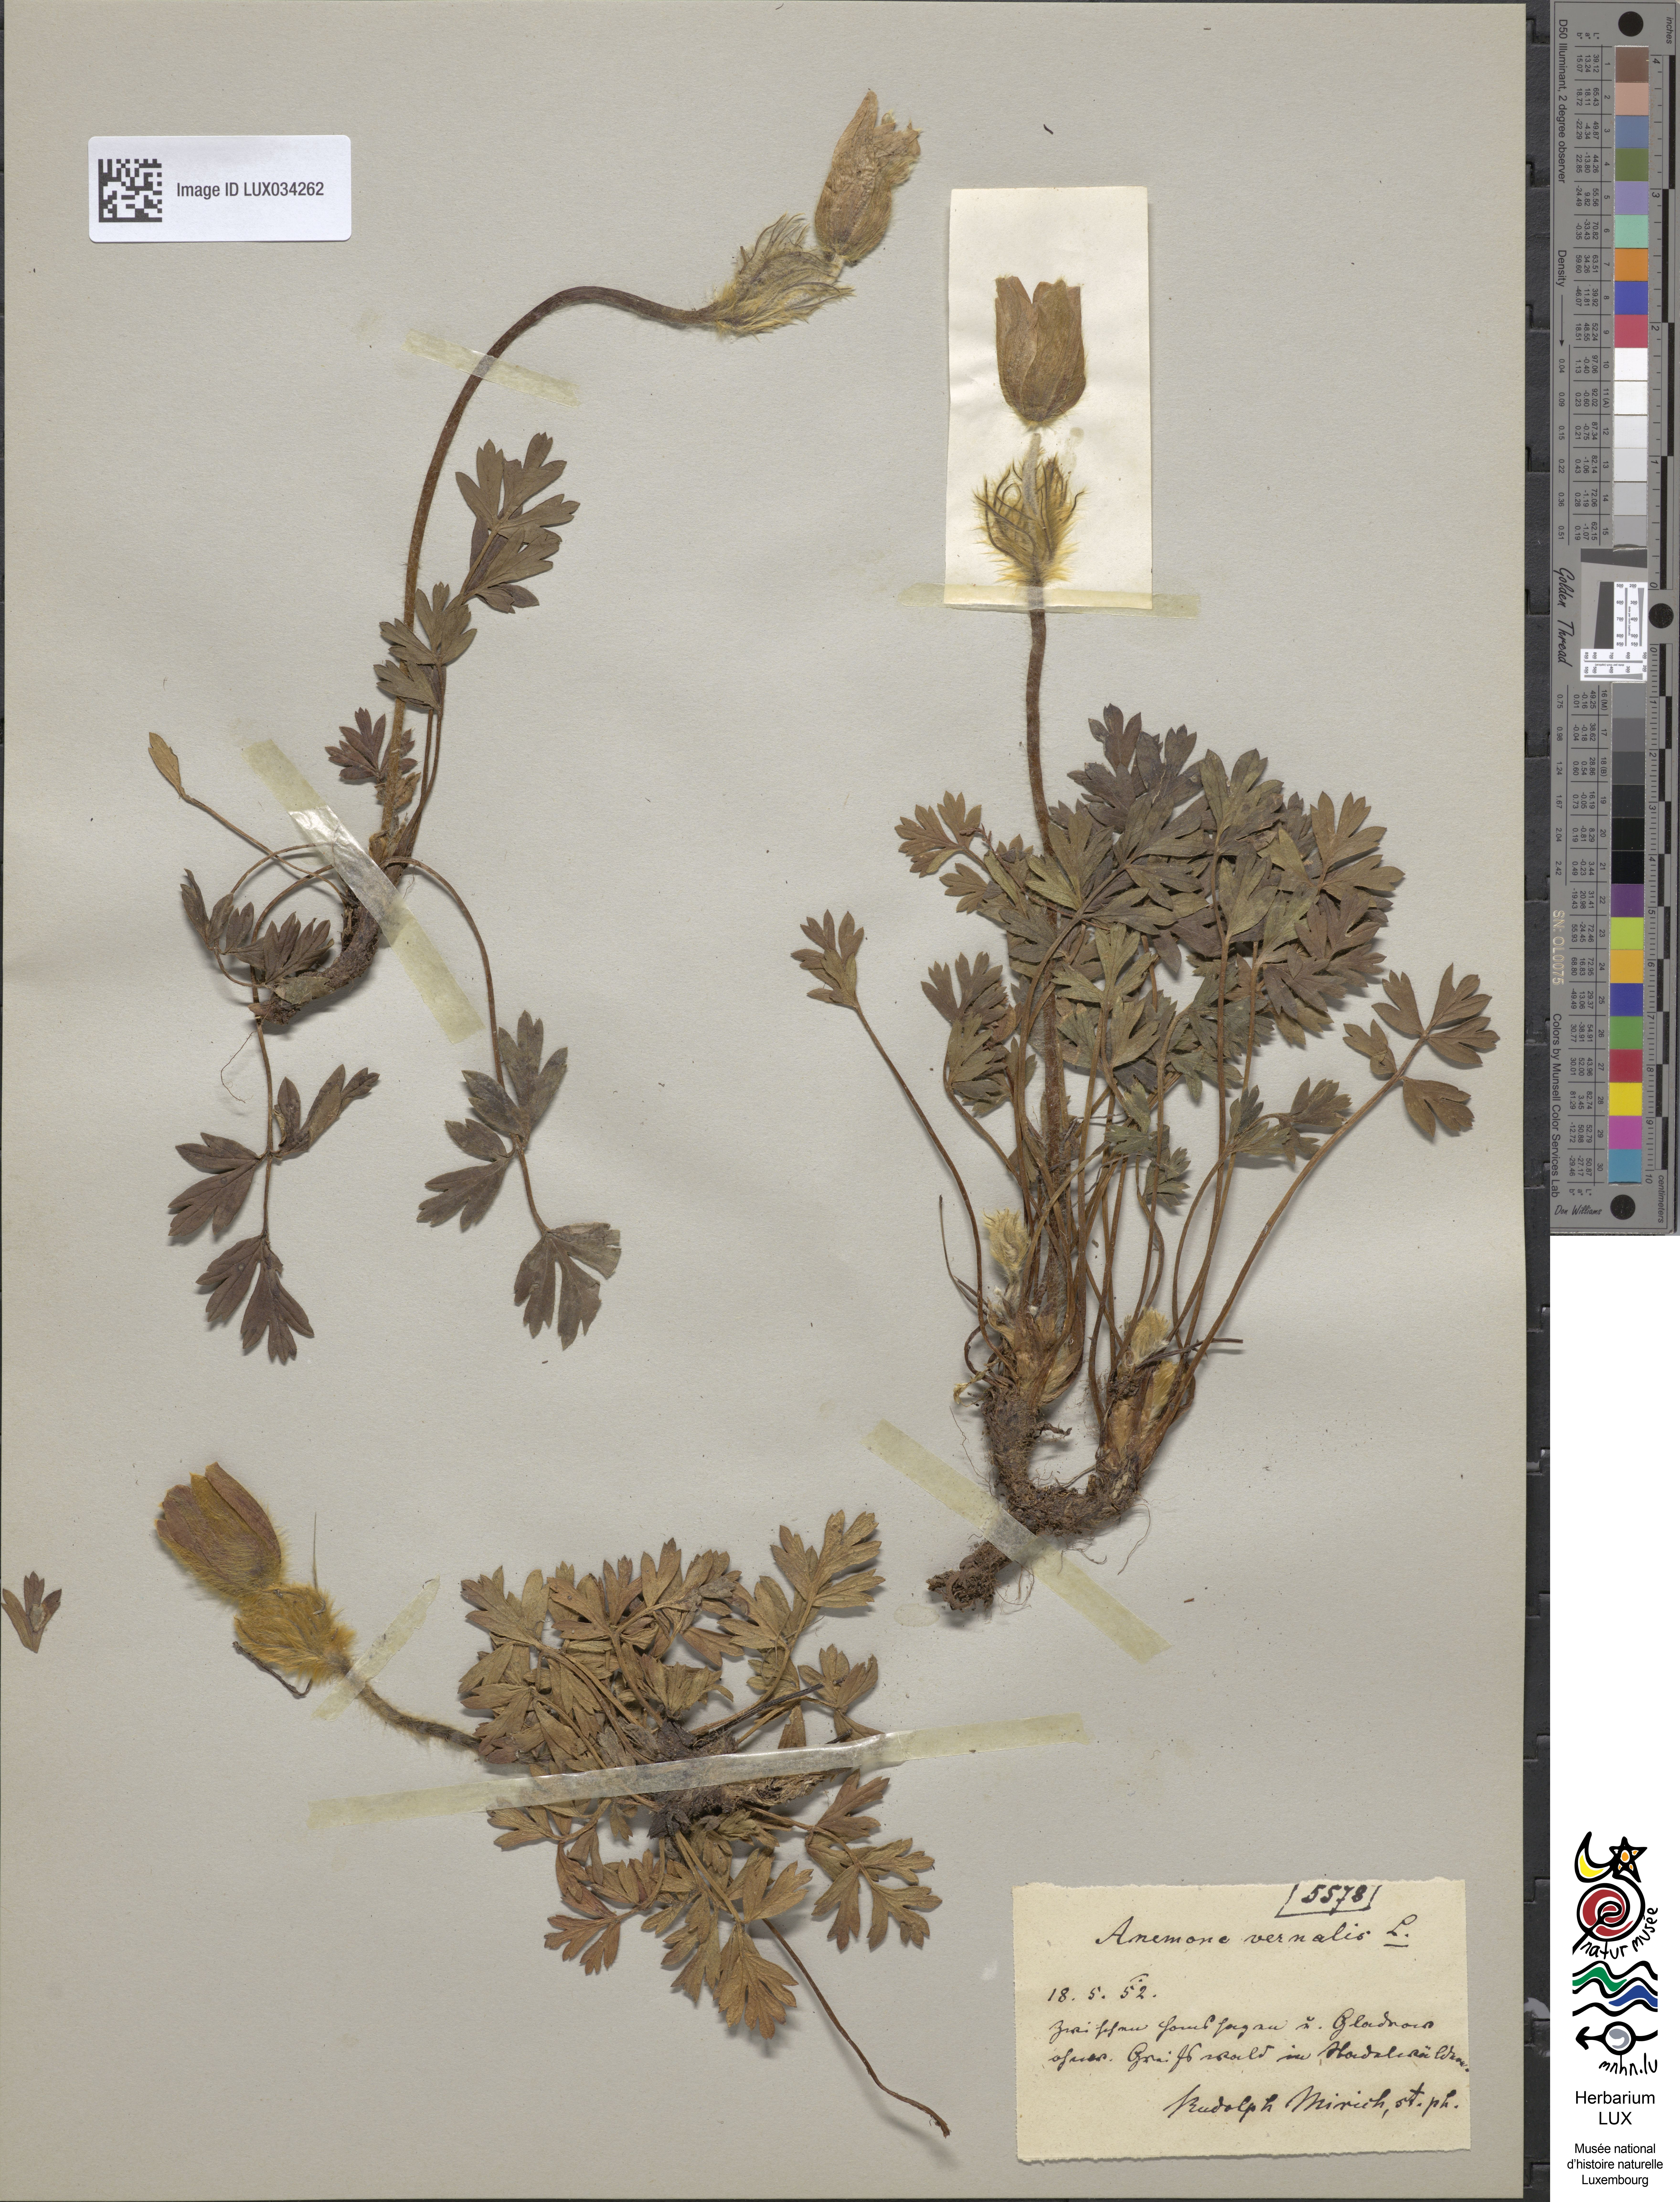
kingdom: Plantae
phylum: Tracheophyta
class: Magnoliopsida
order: Ranunculales
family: Ranunculaceae
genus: Pulsatilla
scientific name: Pulsatilla vernalis
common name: Spring pasque flower
